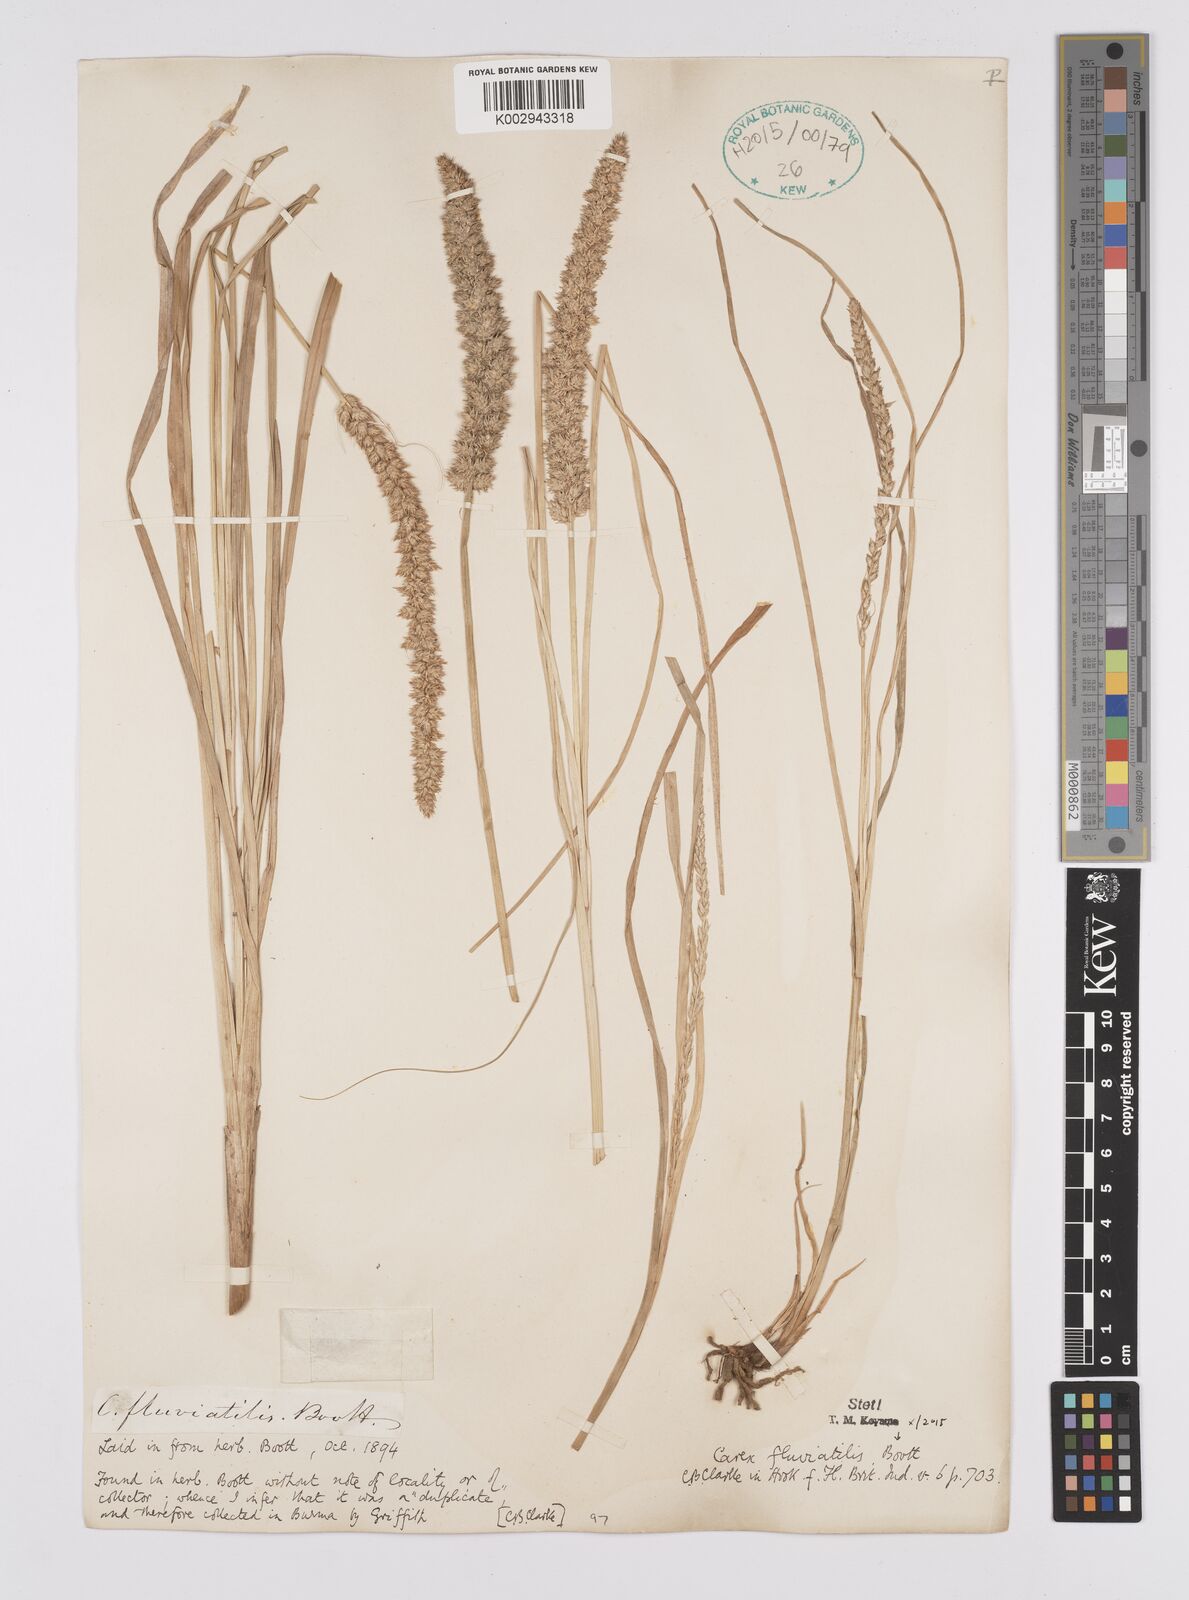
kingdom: Plantae
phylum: Tracheophyta
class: Liliopsida
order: Poales
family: Cyperaceae
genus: Carex
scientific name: Carex fluviatilis
